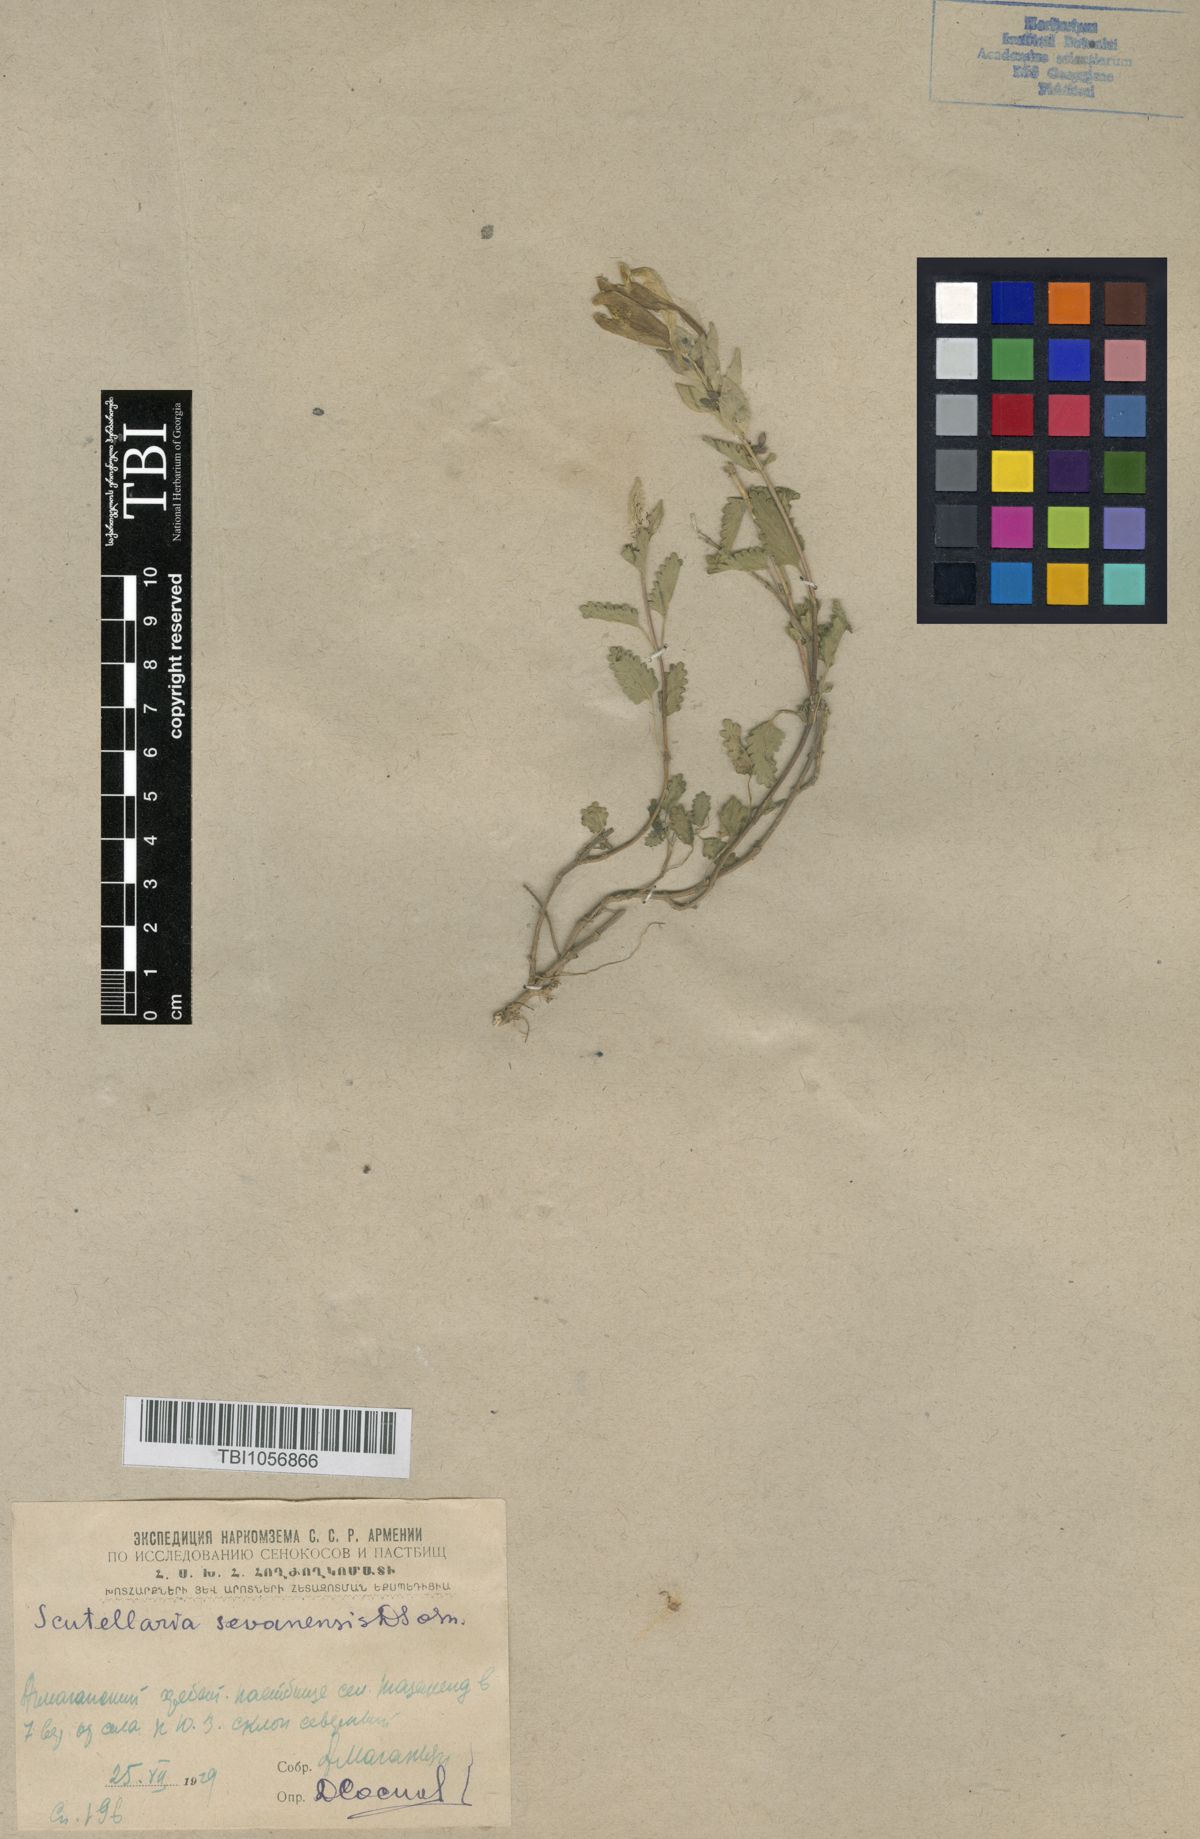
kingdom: Plantae
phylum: Tracheophyta
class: Magnoliopsida
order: Lamiales
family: Lamiaceae
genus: Scutellaria
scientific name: Scutellaria sevanensis
